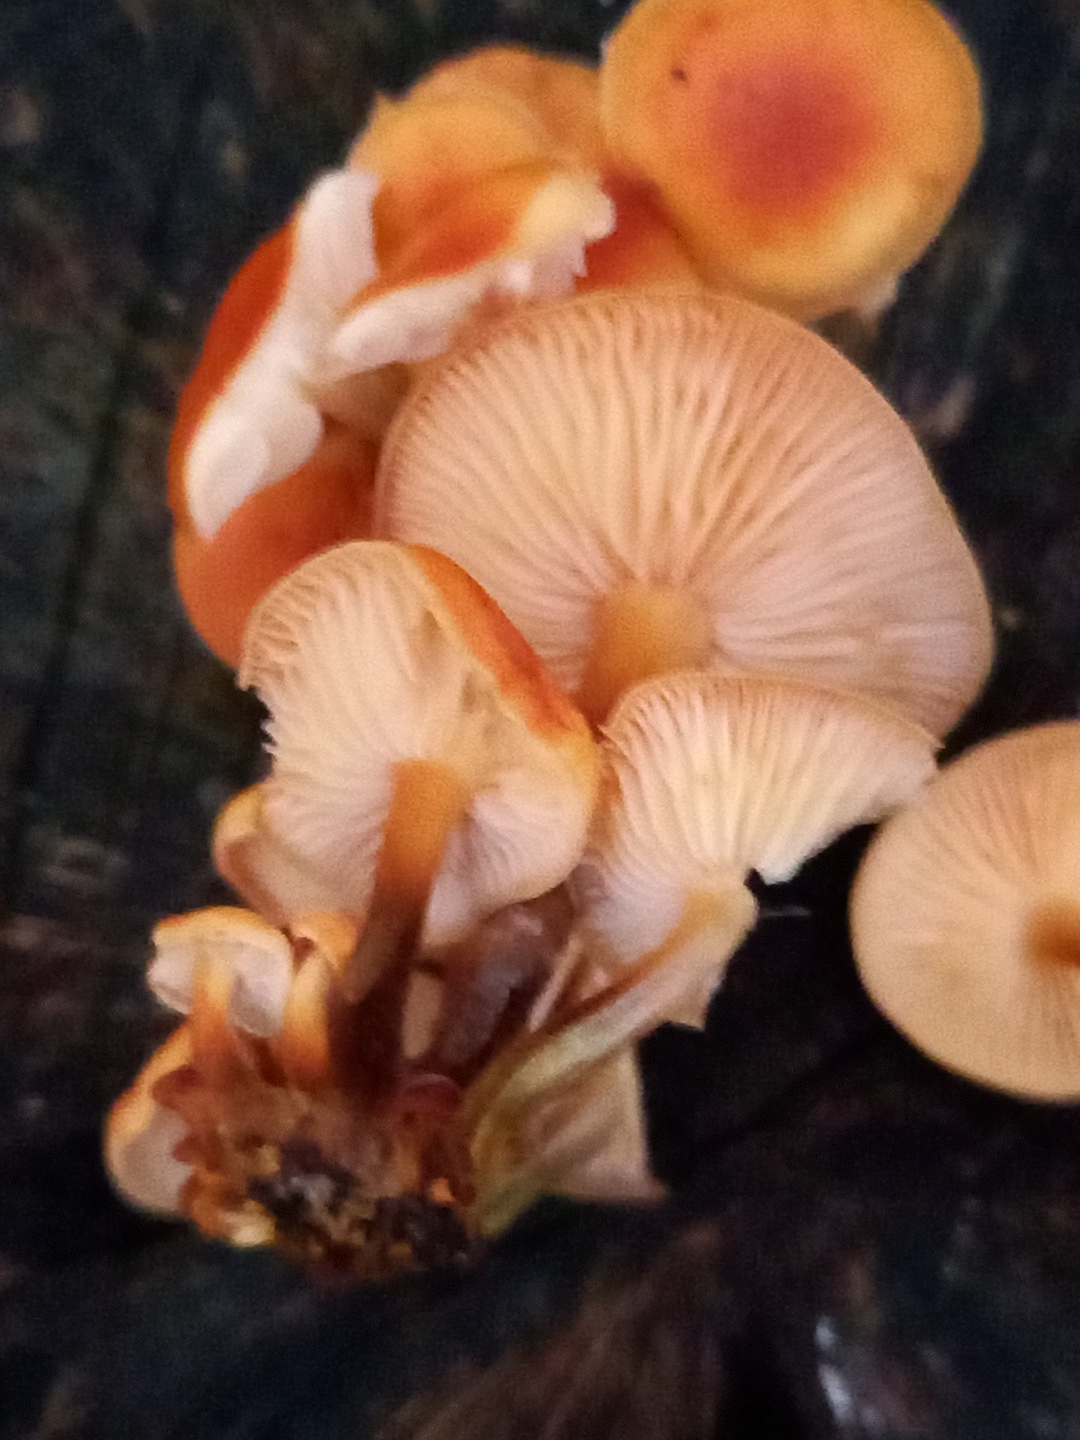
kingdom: Fungi
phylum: Basidiomycota
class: Agaricomycetes
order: Agaricales
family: Physalacriaceae
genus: Flammulina
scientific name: Flammulina velutipes
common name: gul fløjlsfod
